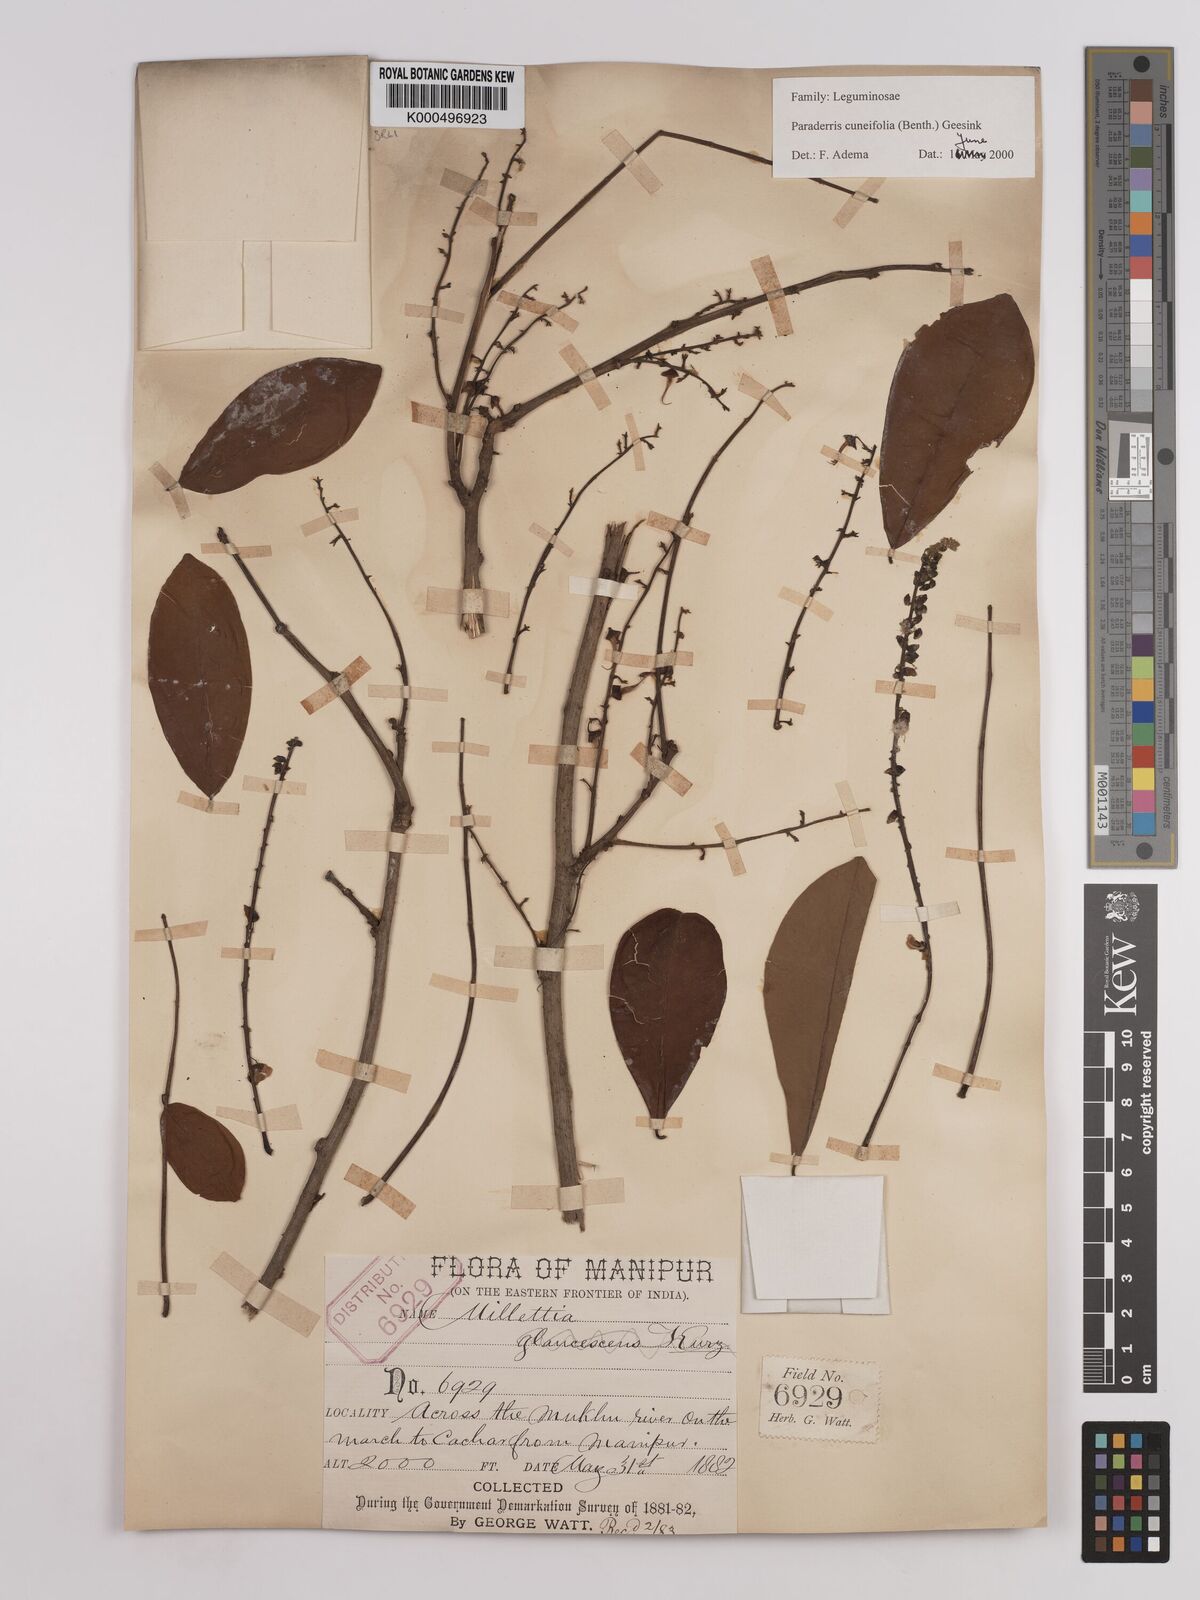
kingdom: Plantae
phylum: Tracheophyta
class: Magnoliopsida
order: Fabales
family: Fabaceae
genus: Derris
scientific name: Derris cuneifolia
